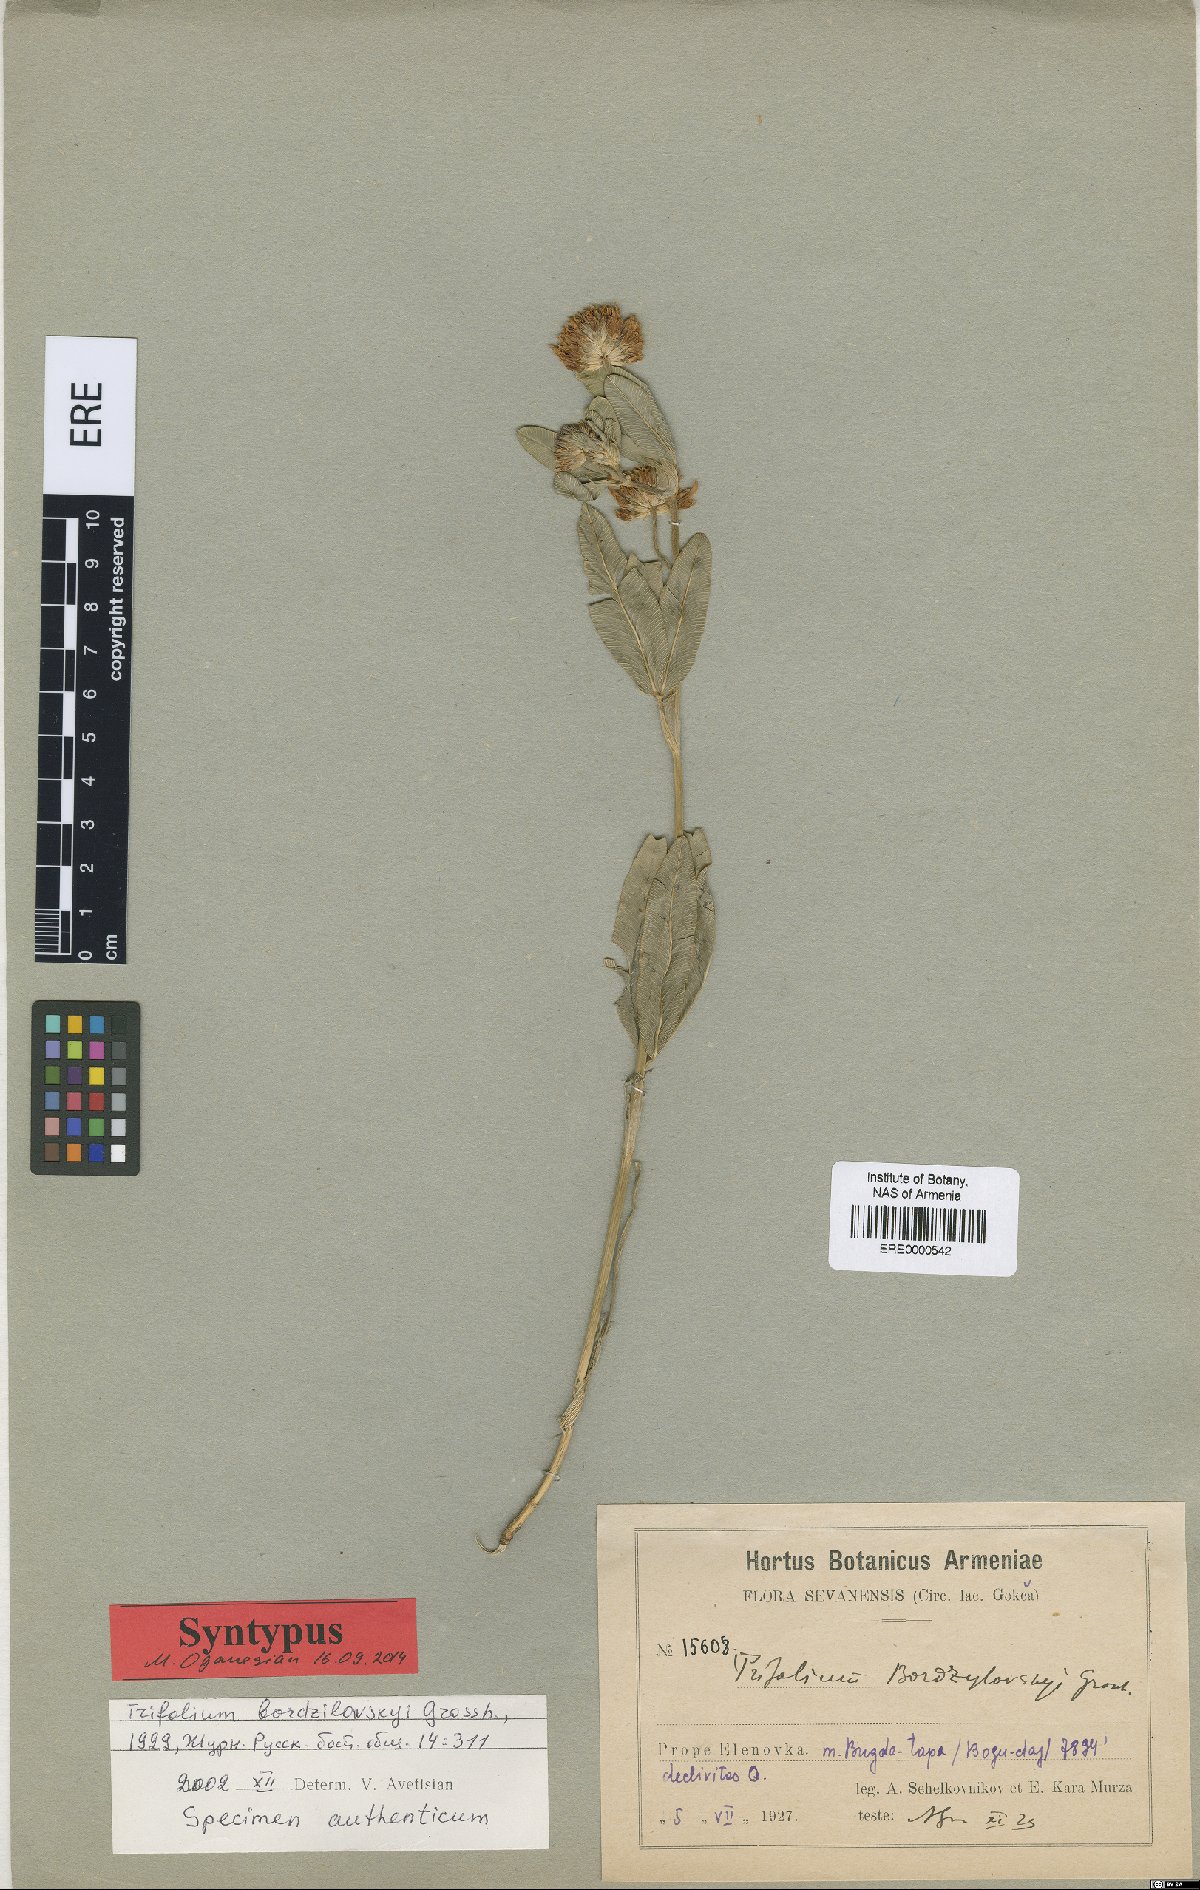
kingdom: Plantae
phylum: Tracheophyta
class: Magnoliopsida
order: Fabales
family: Fabaceae
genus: Trifolium
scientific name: Trifolium bordsilovskyi
